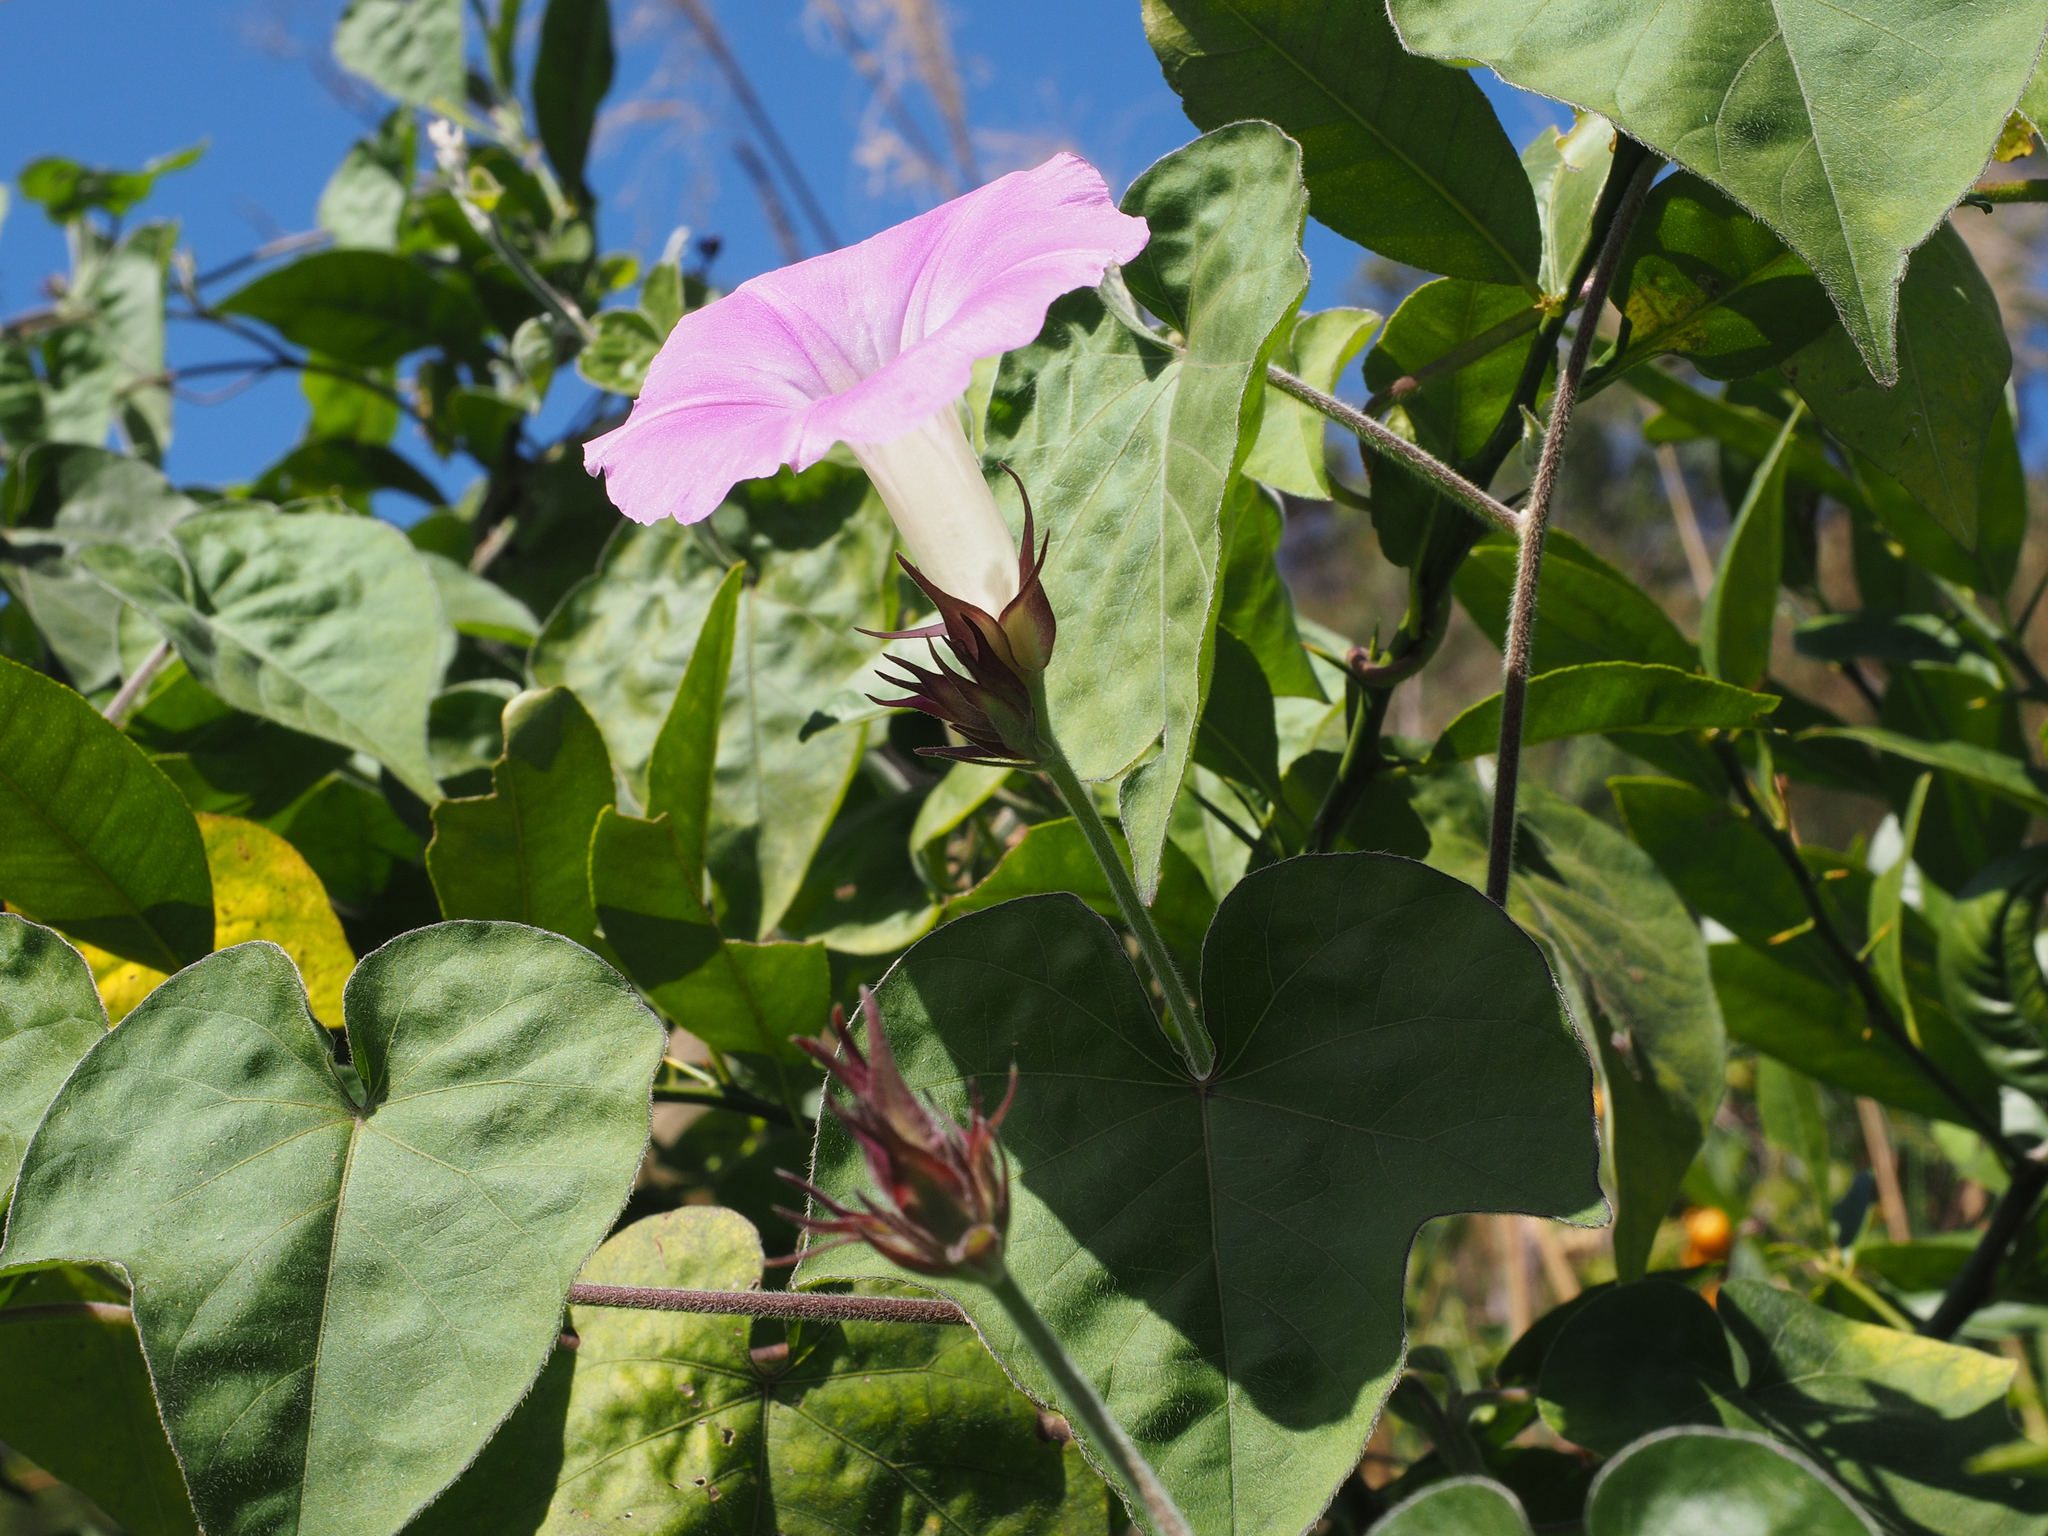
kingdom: Plantae
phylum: Tracheophyta
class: Magnoliopsida
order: Solanales
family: Convolvulaceae
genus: Ipomoea
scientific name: Ipomoea indica
